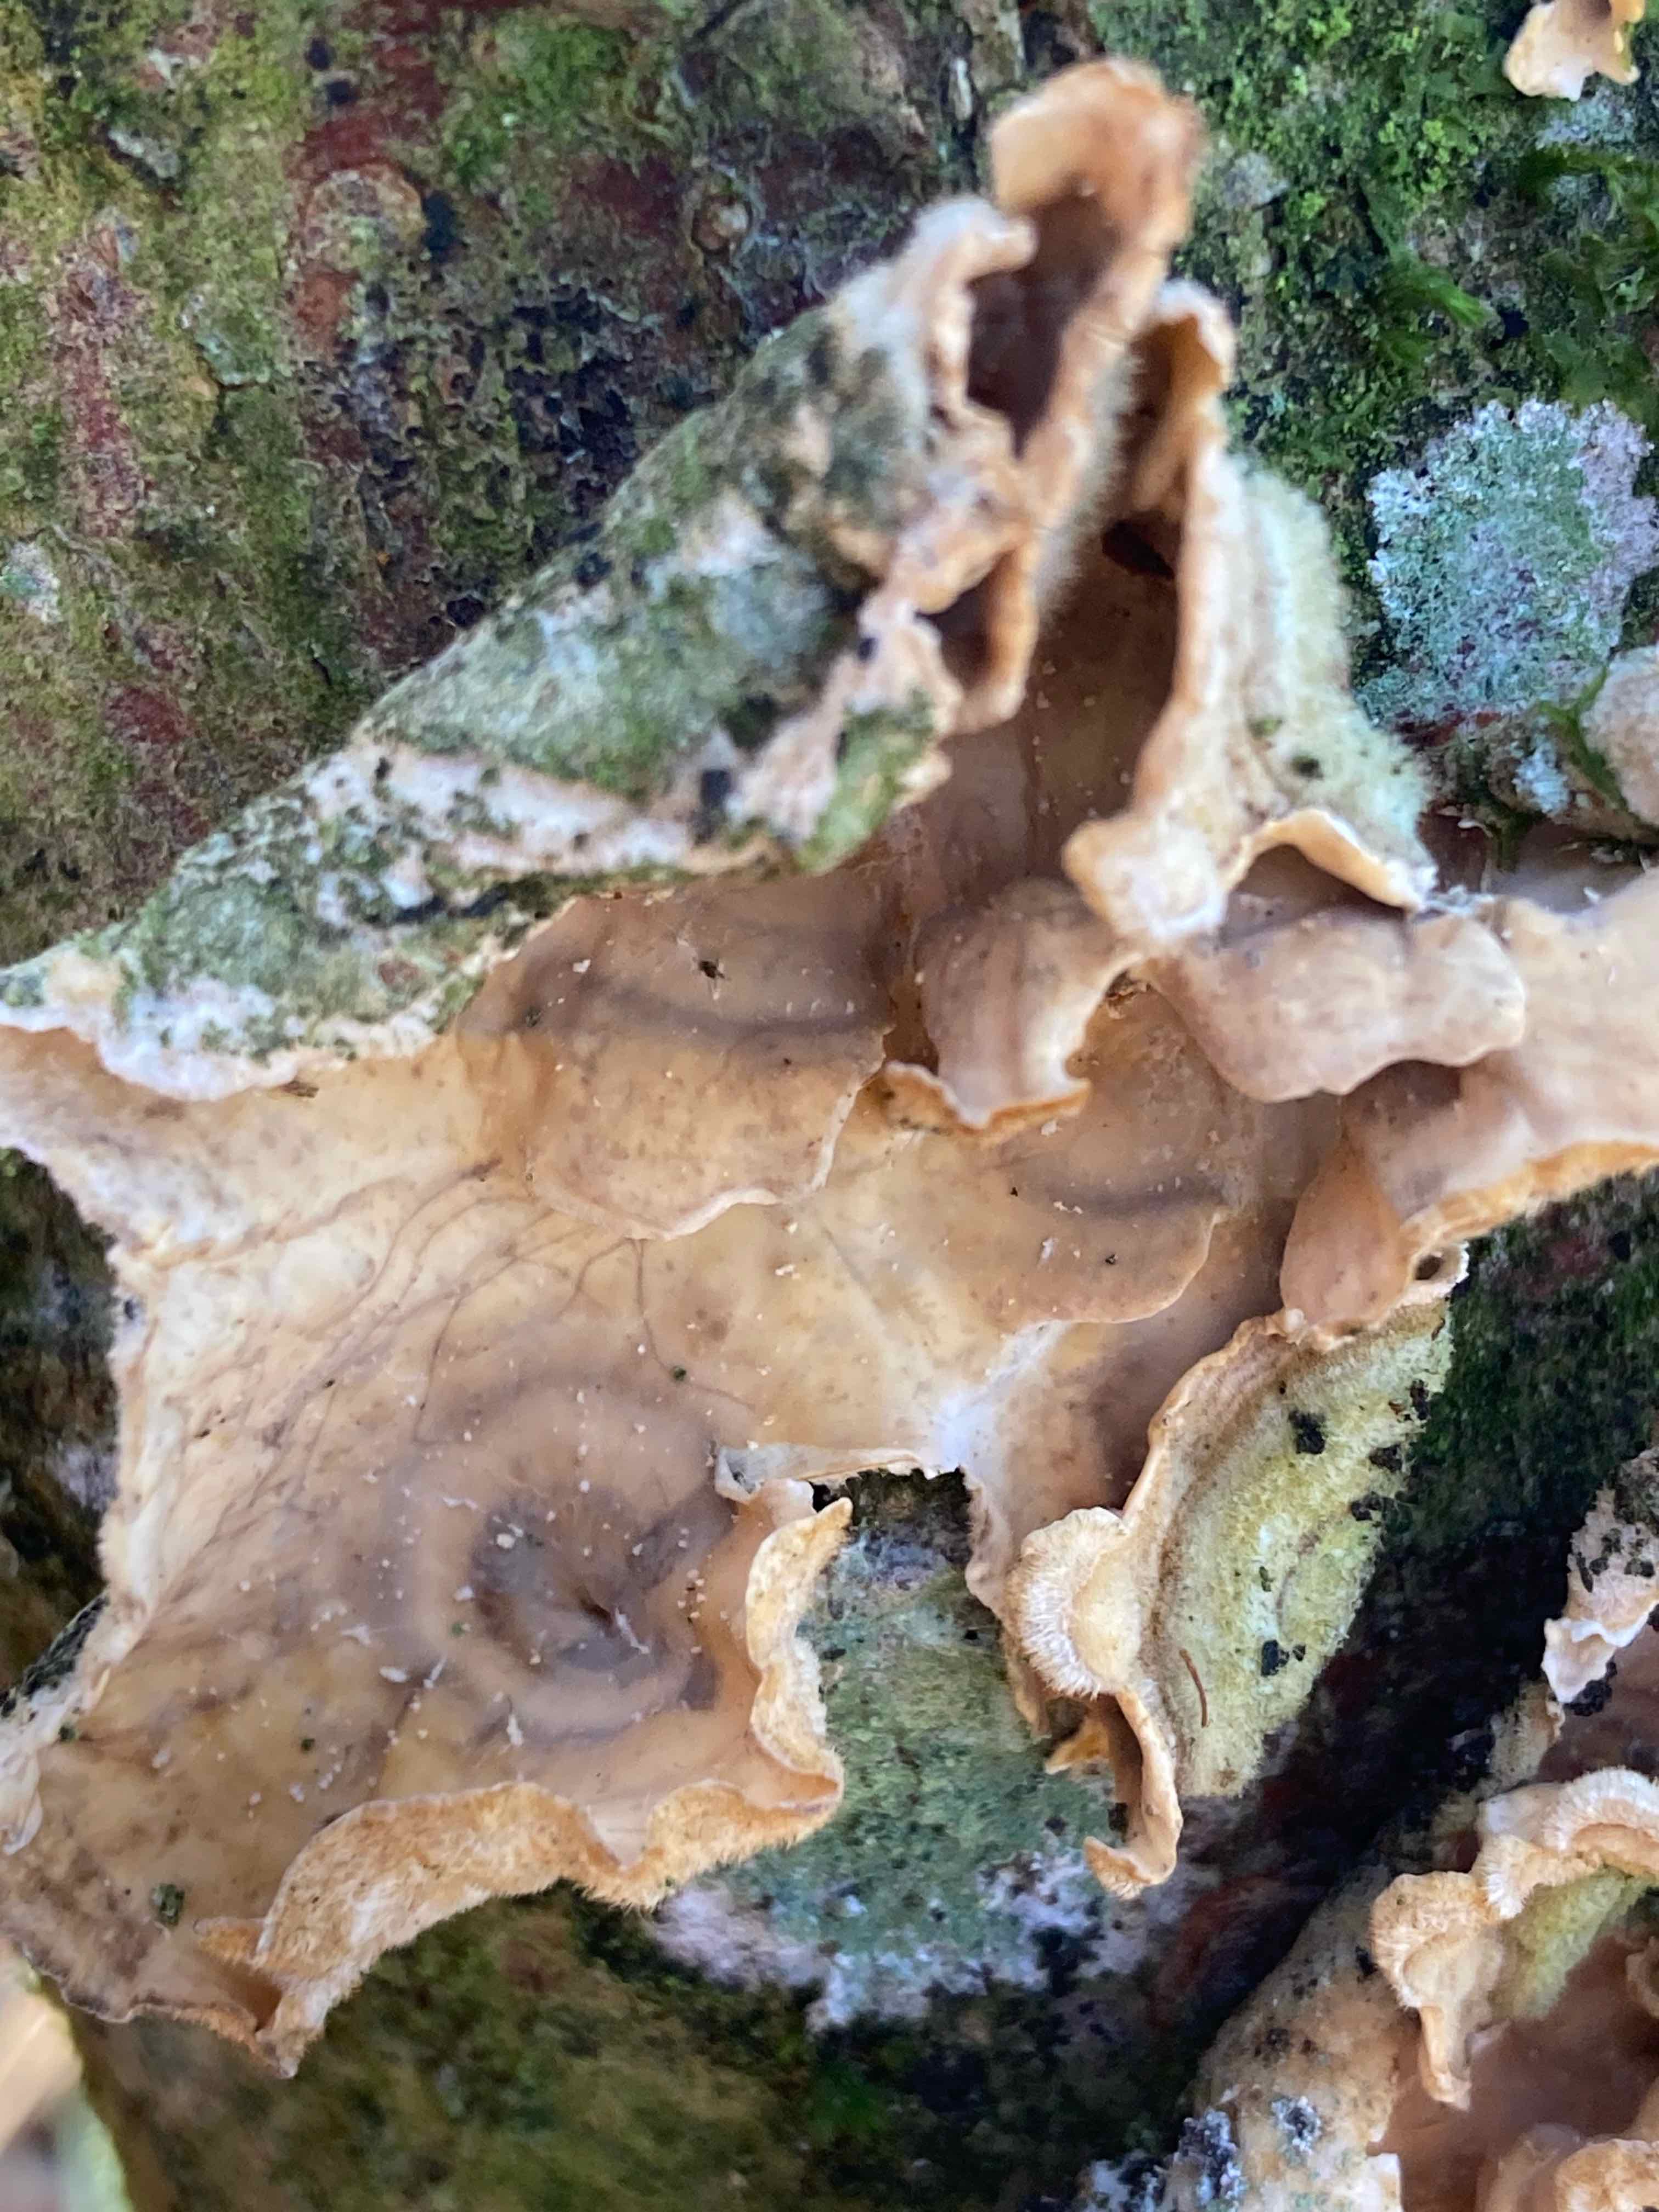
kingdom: Fungi
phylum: Basidiomycota
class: Agaricomycetes
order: Russulales
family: Stereaceae
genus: Stereum
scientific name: Stereum hirsutum
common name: håret lædersvamp
